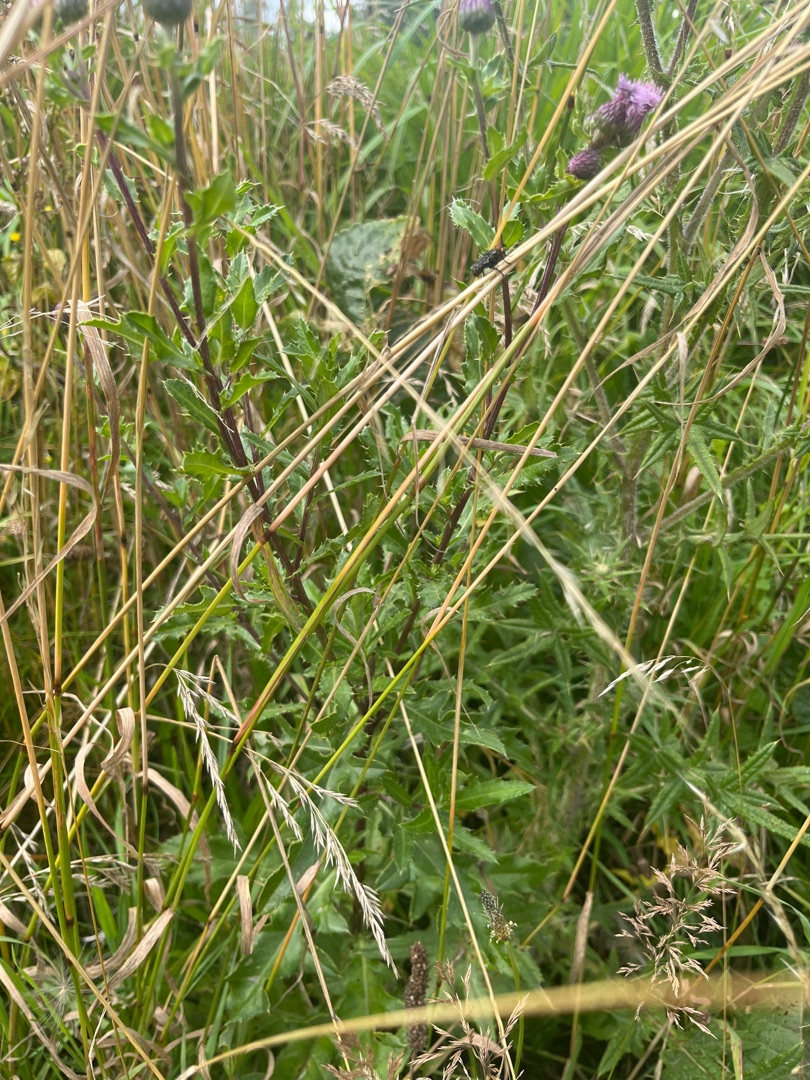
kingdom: Plantae
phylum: Tracheophyta
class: Magnoliopsida
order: Asterales
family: Asteraceae
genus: Cirsium
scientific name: Cirsium arvense
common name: Ager-tidsel
